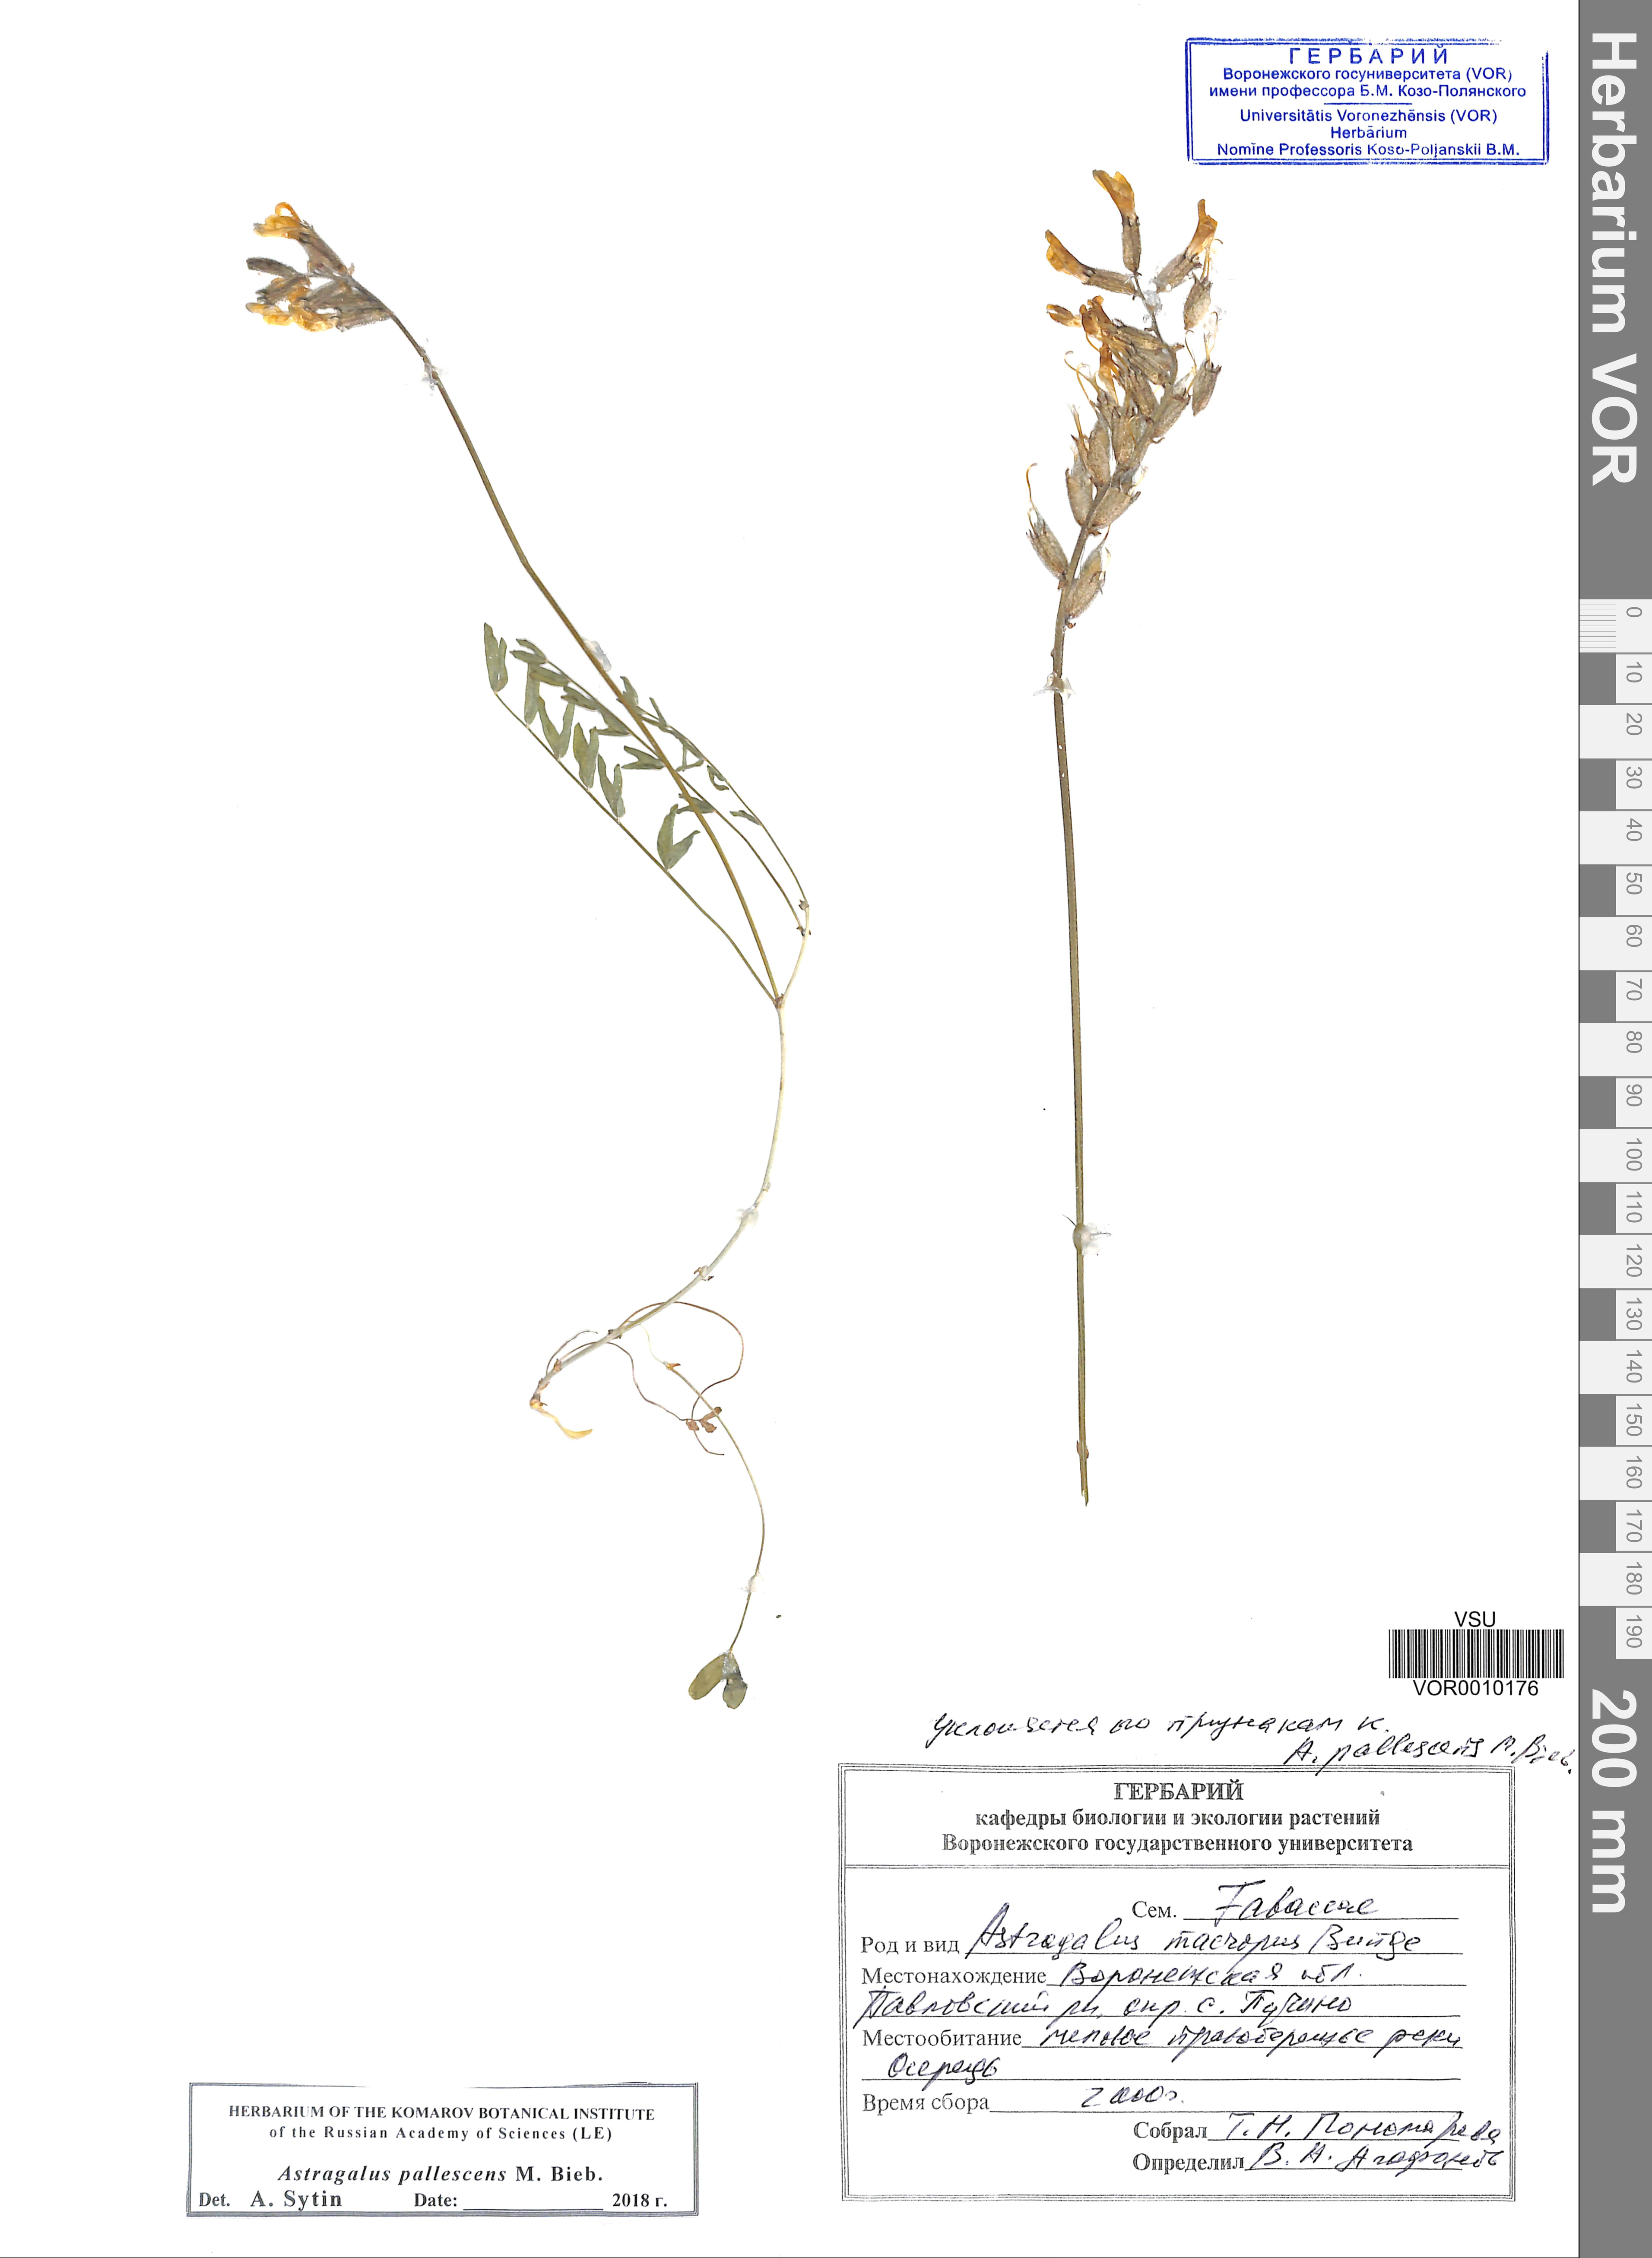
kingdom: Plantae
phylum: Tracheophyta
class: Magnoliopsida
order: Fabales
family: Fabaceae
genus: Astragalus
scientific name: Astragalus pallescens
